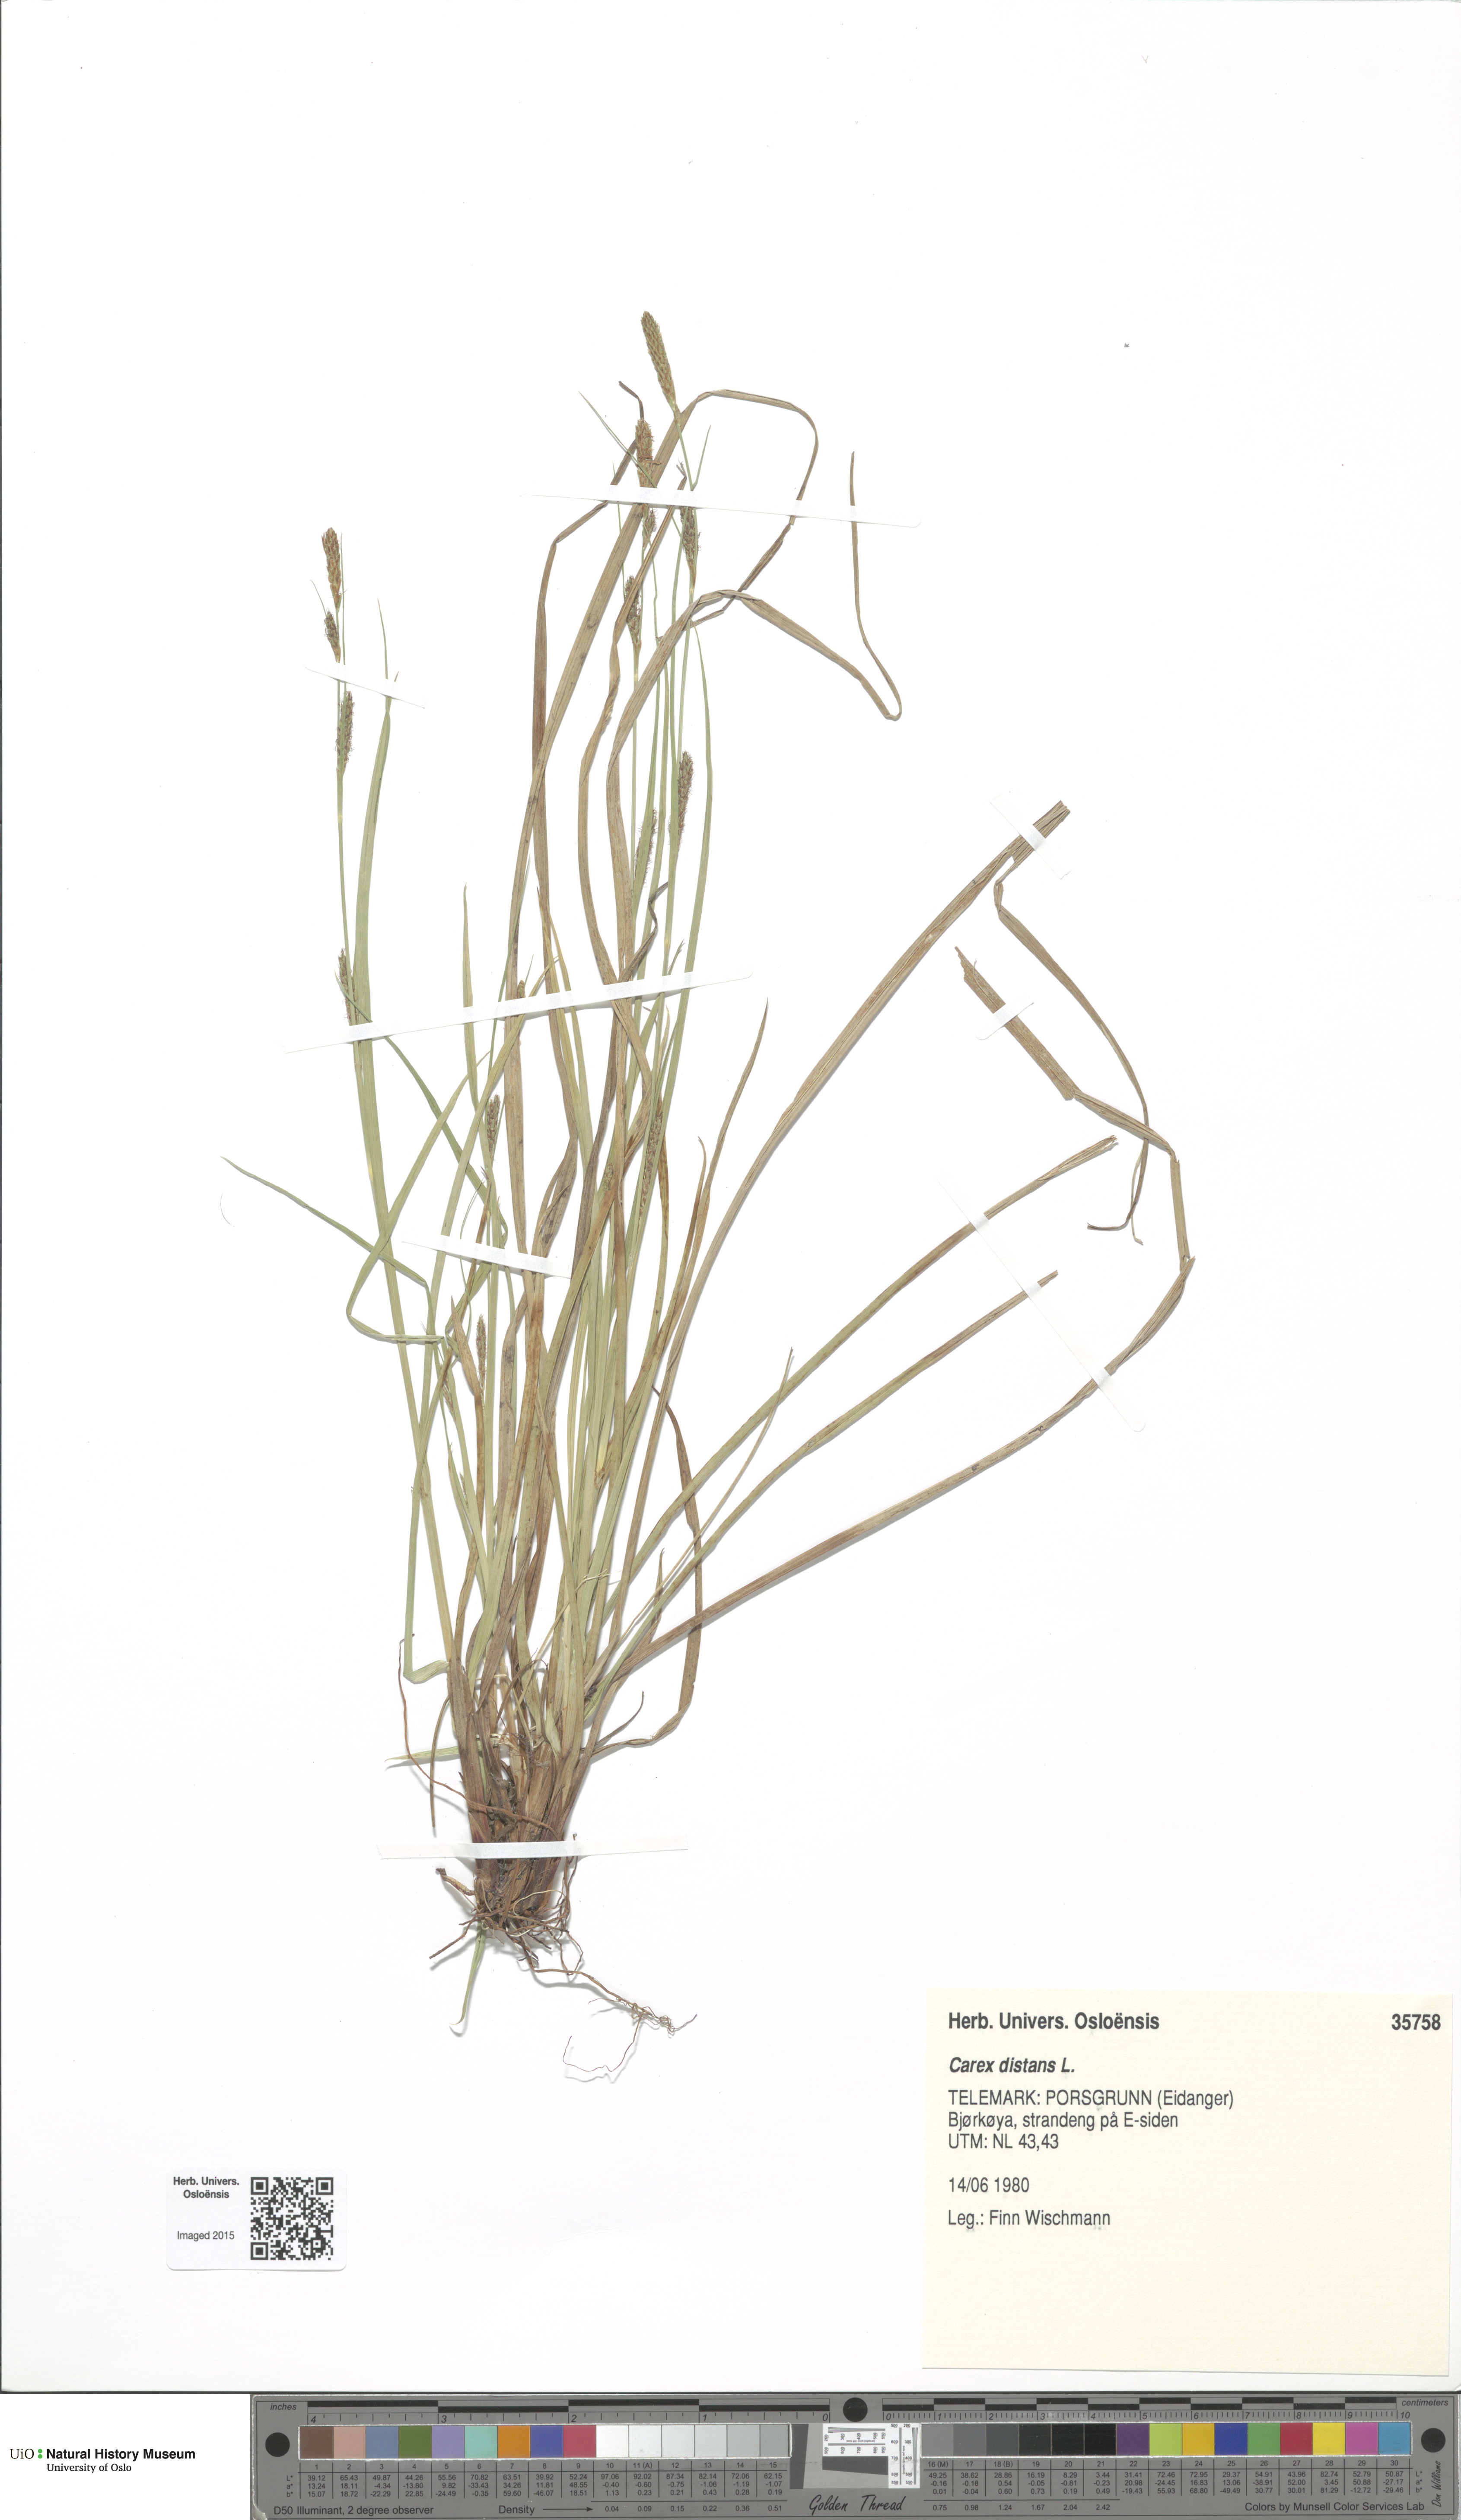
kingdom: Plantae
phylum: Tracheophyta
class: Liliopsida
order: Poales
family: Cyperaceae
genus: Carex
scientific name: Carex distans
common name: Distant sedge
